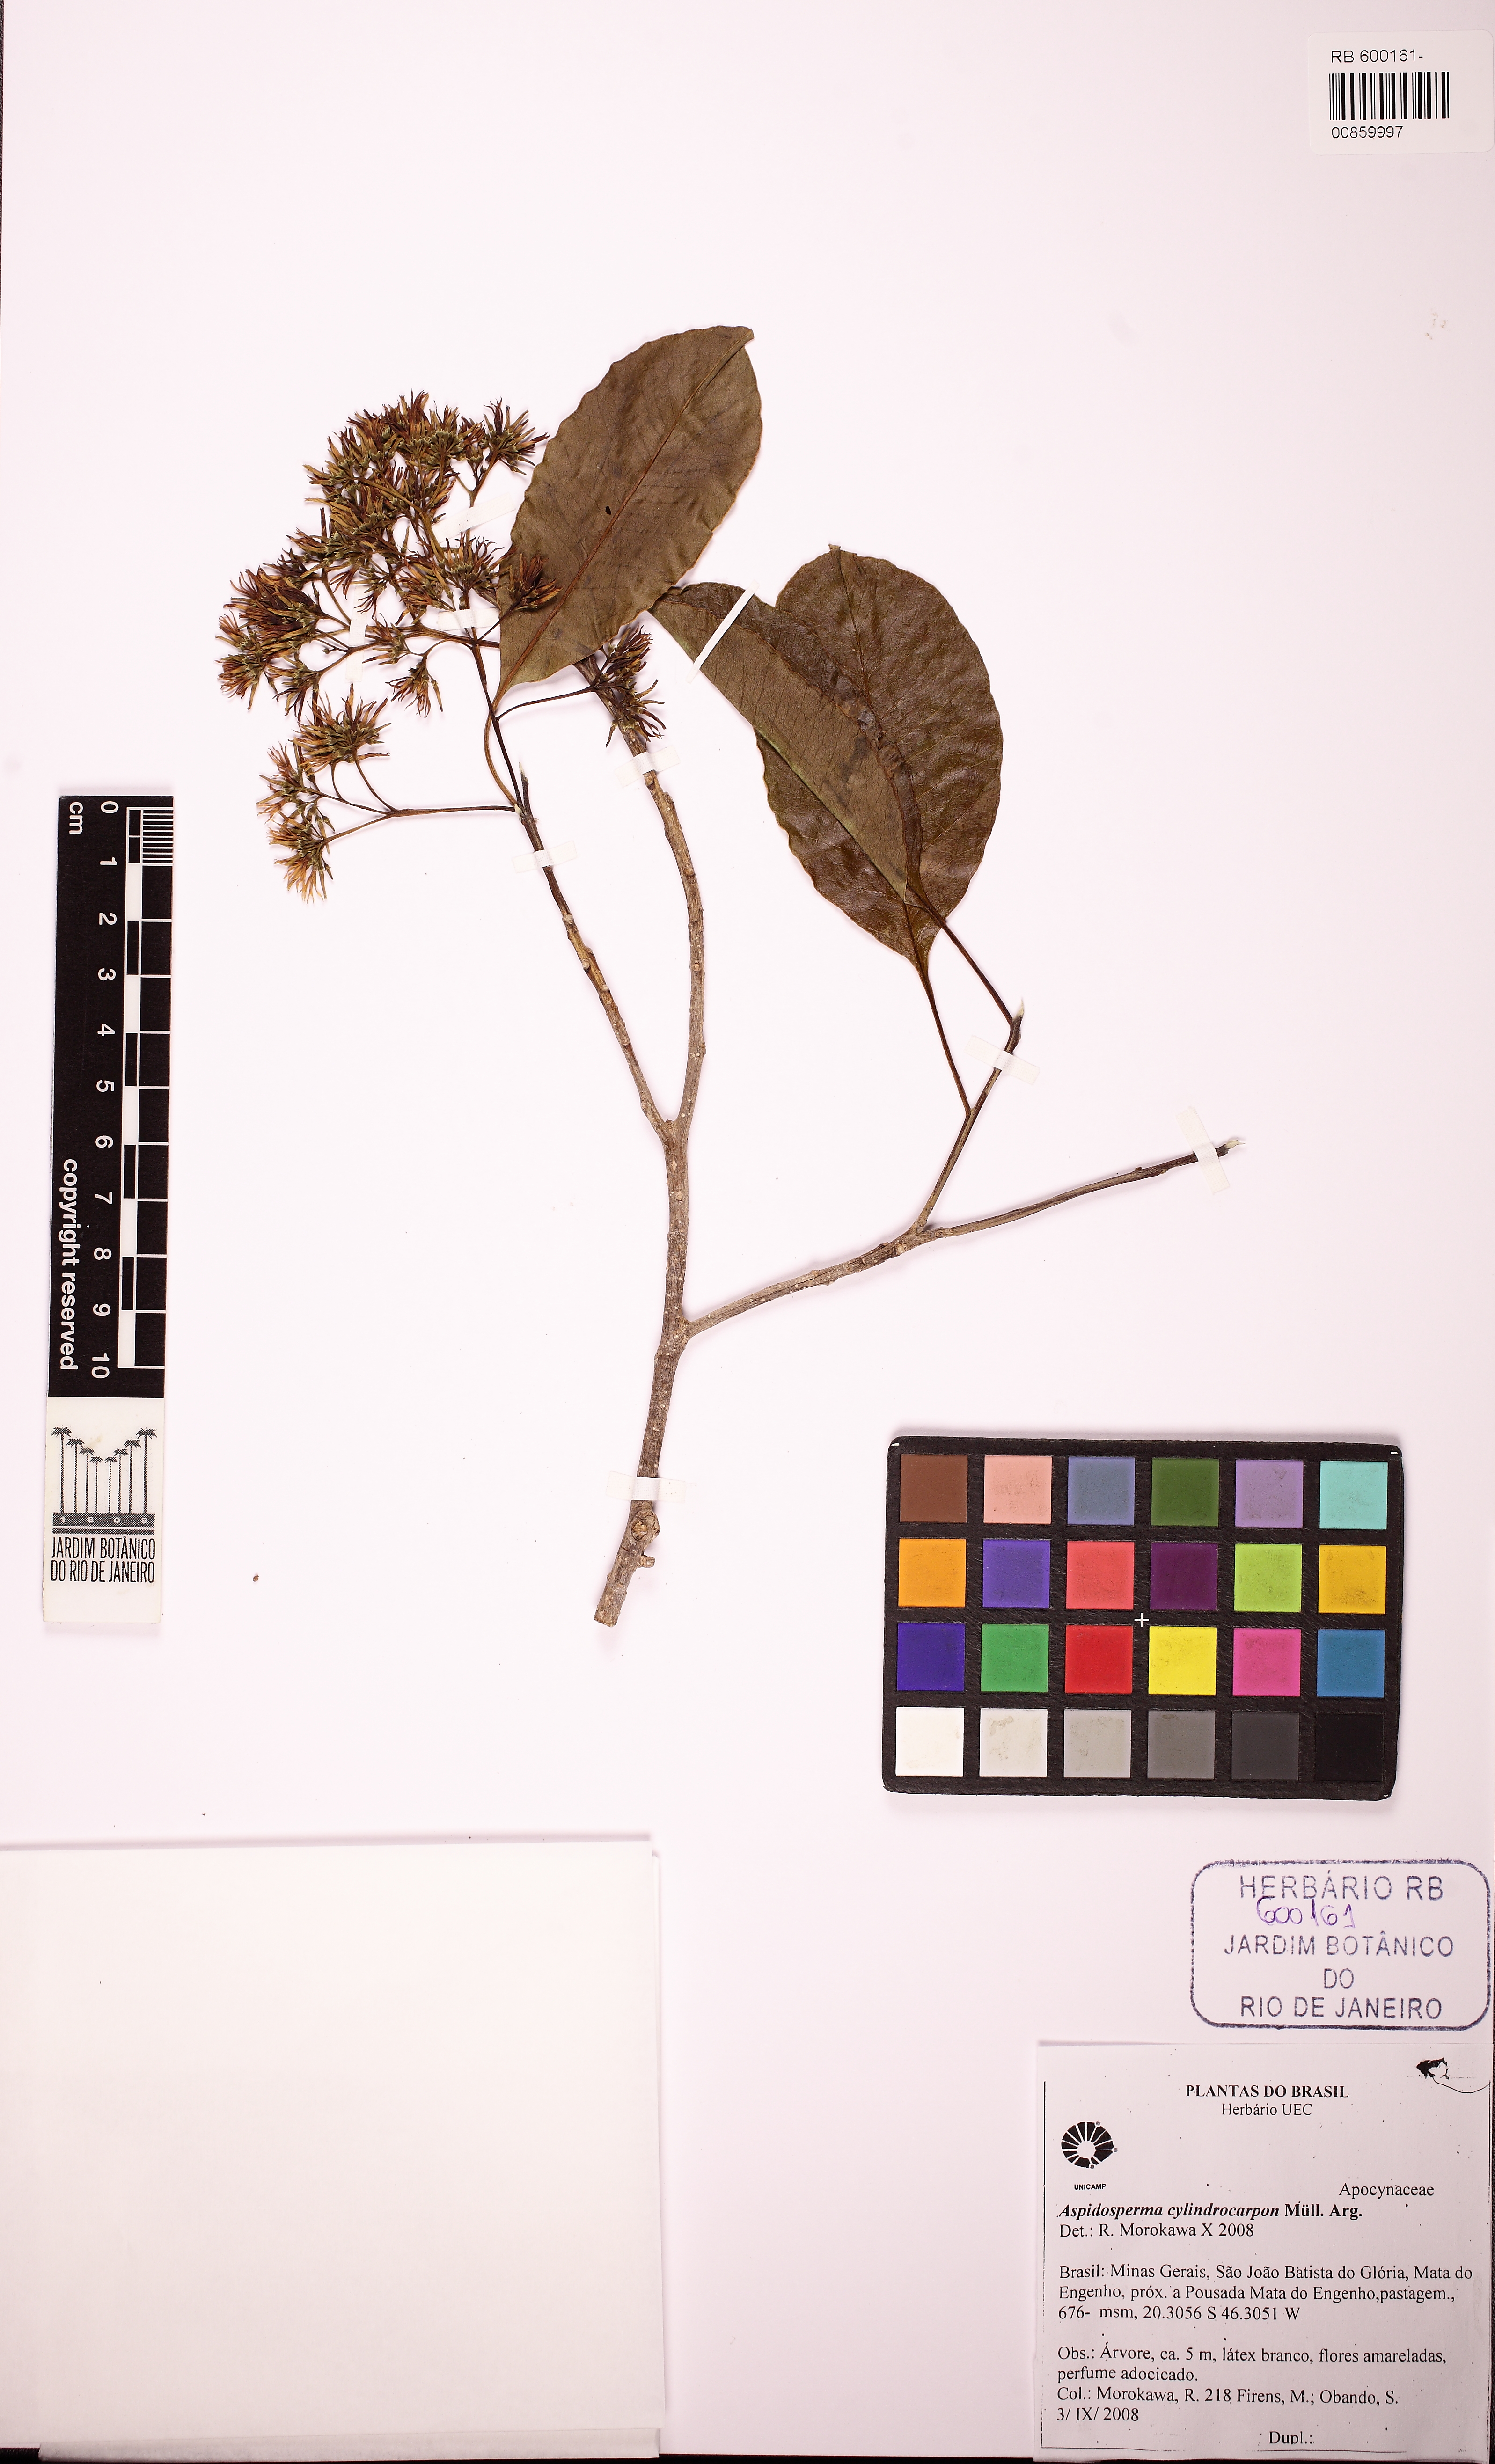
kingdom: Plantae
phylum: Tracheophyta
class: Magnoliopsida
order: Gentianales
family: Apocynaceae
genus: Aspidosperma
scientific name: Aspidosperma cylindrocarpon
